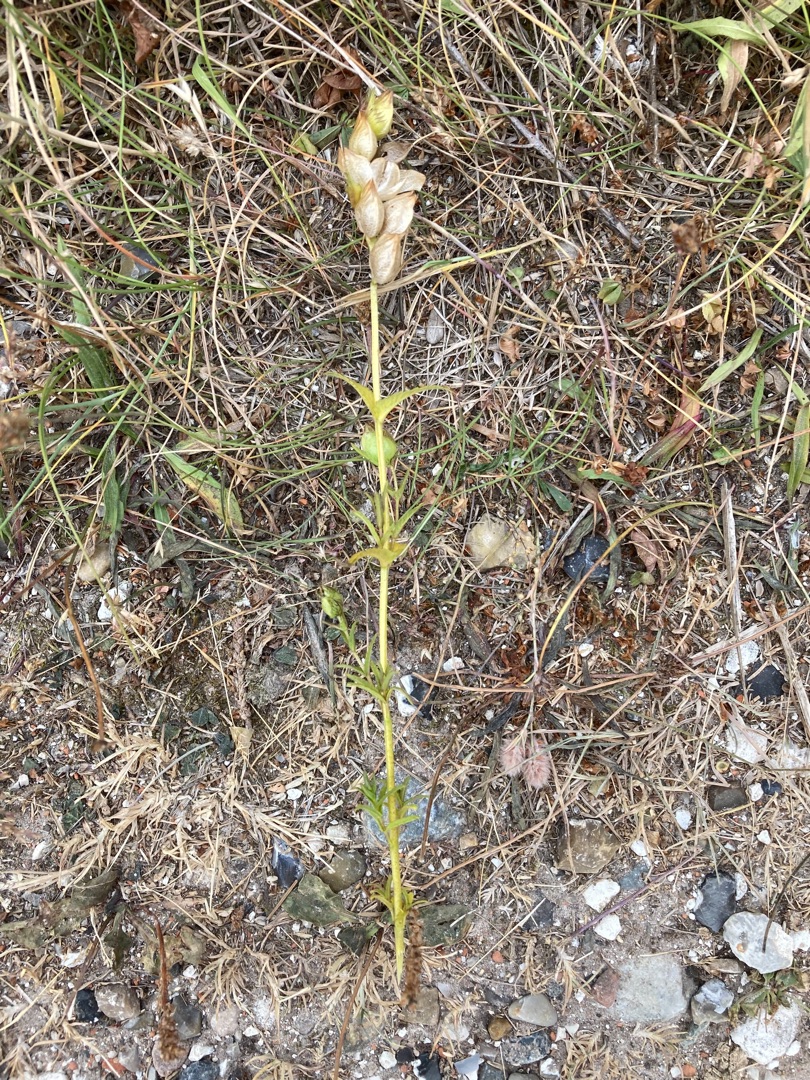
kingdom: Plantae
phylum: Tracheophyta
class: Magnoliopsida
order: Lamiales
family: Orobanchaceae
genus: Rhinanthus
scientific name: Rhinanthus
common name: Skjallerslægten
